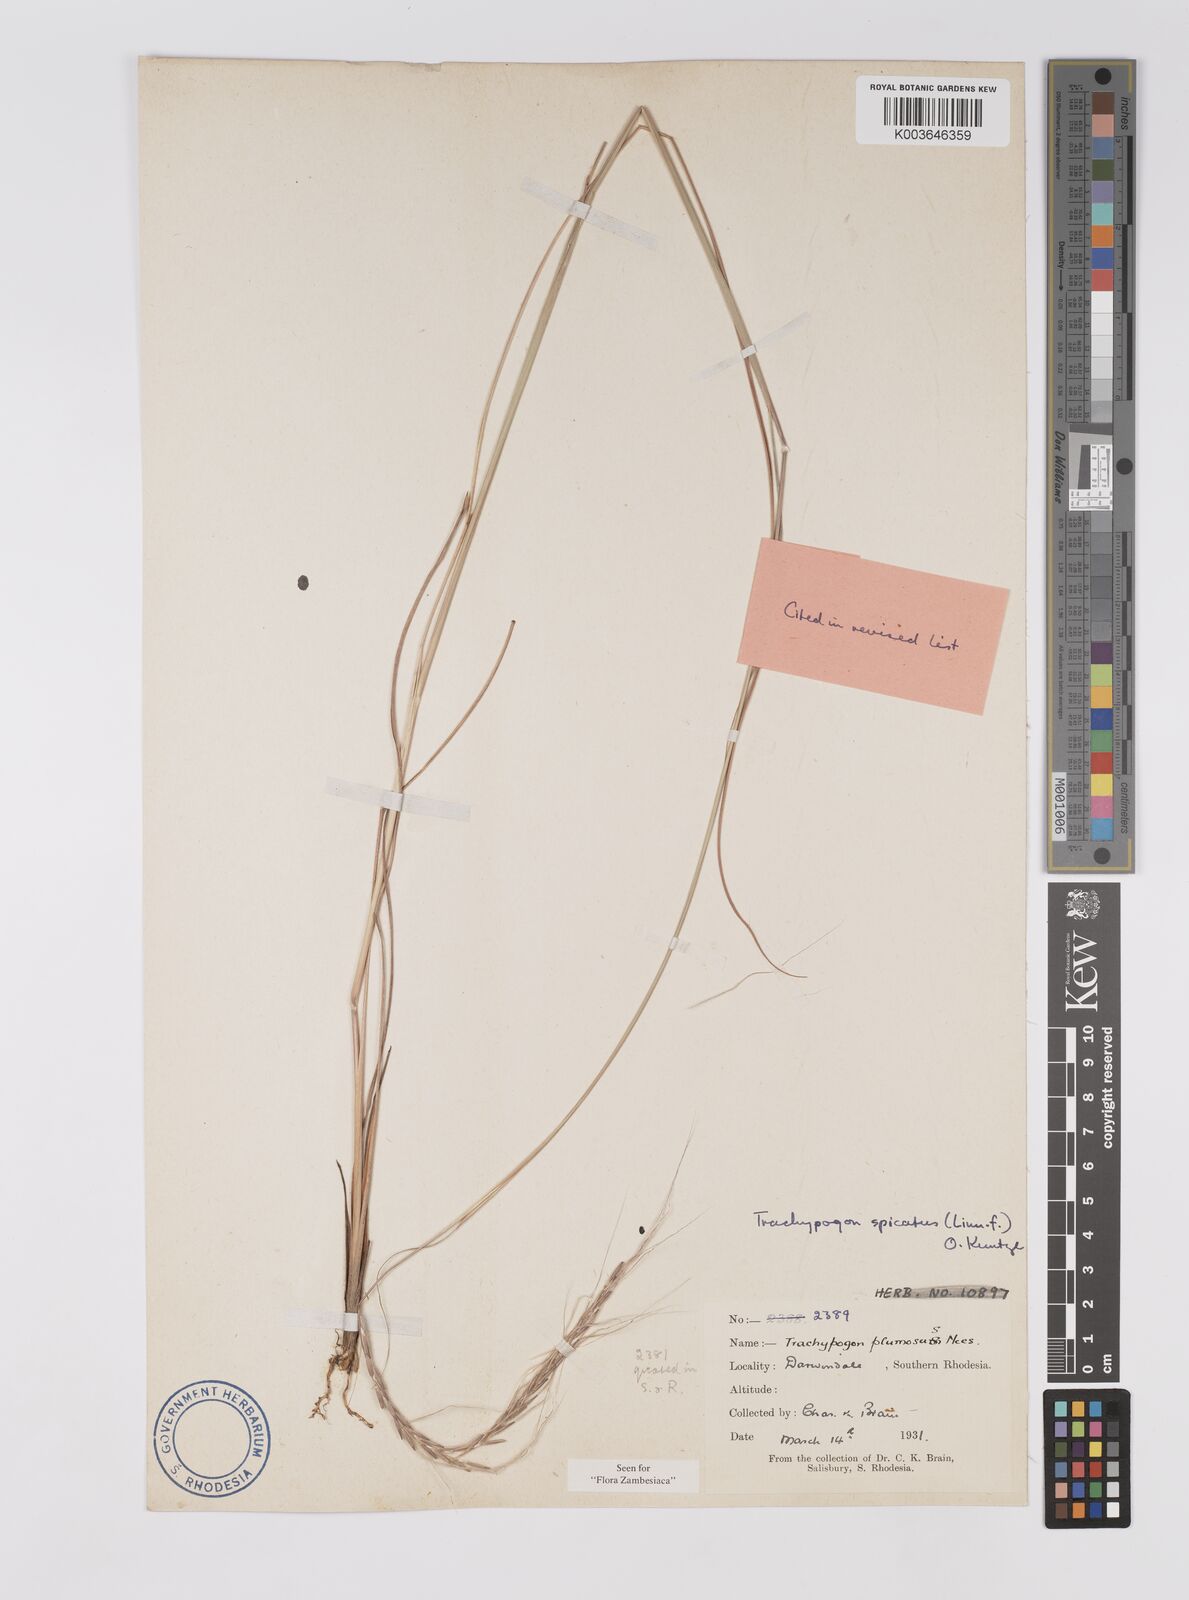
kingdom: Plantae
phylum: Tracheophyta
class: Liliopsida
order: Poales
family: Poaceae
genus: Trachypogon
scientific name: Trachypogon spicatus
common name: Crinkle-awn
